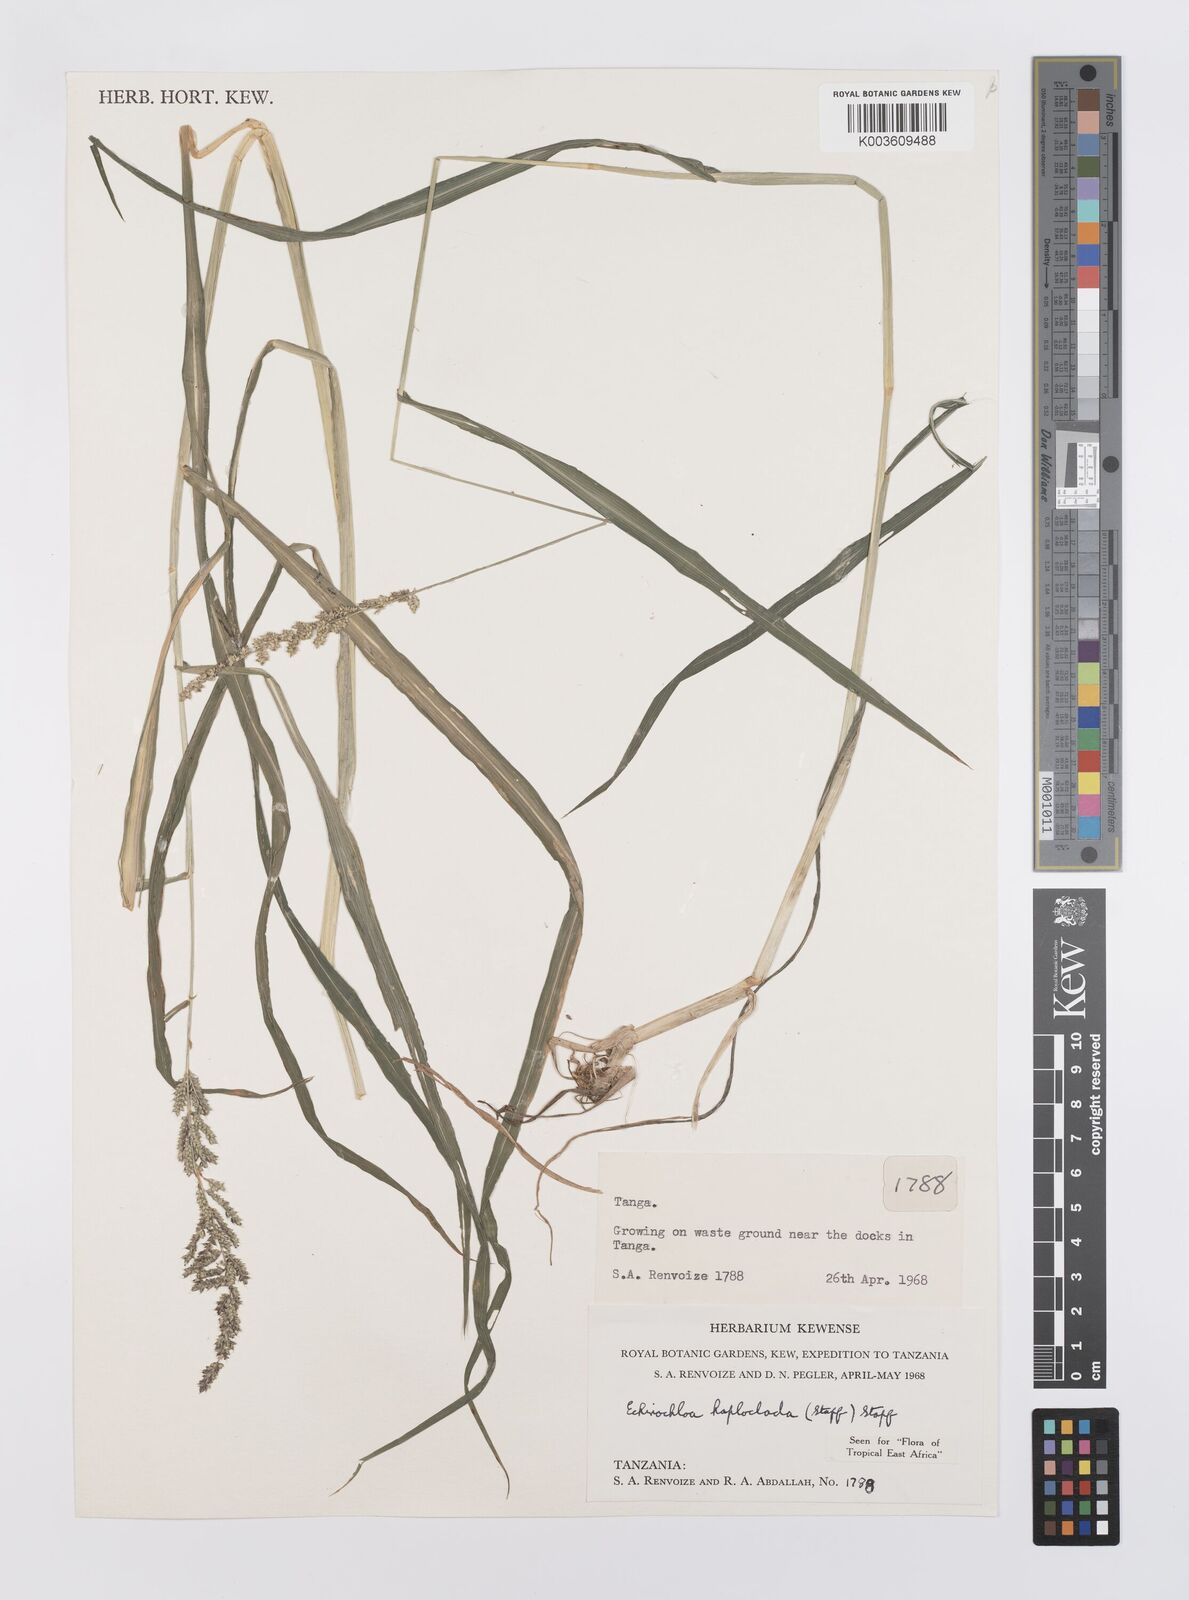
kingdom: Plantae
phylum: Tracheophyta
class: Liliopsida
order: Poales
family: Poaceae
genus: Echinochloa
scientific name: Echinochloa haploclada
